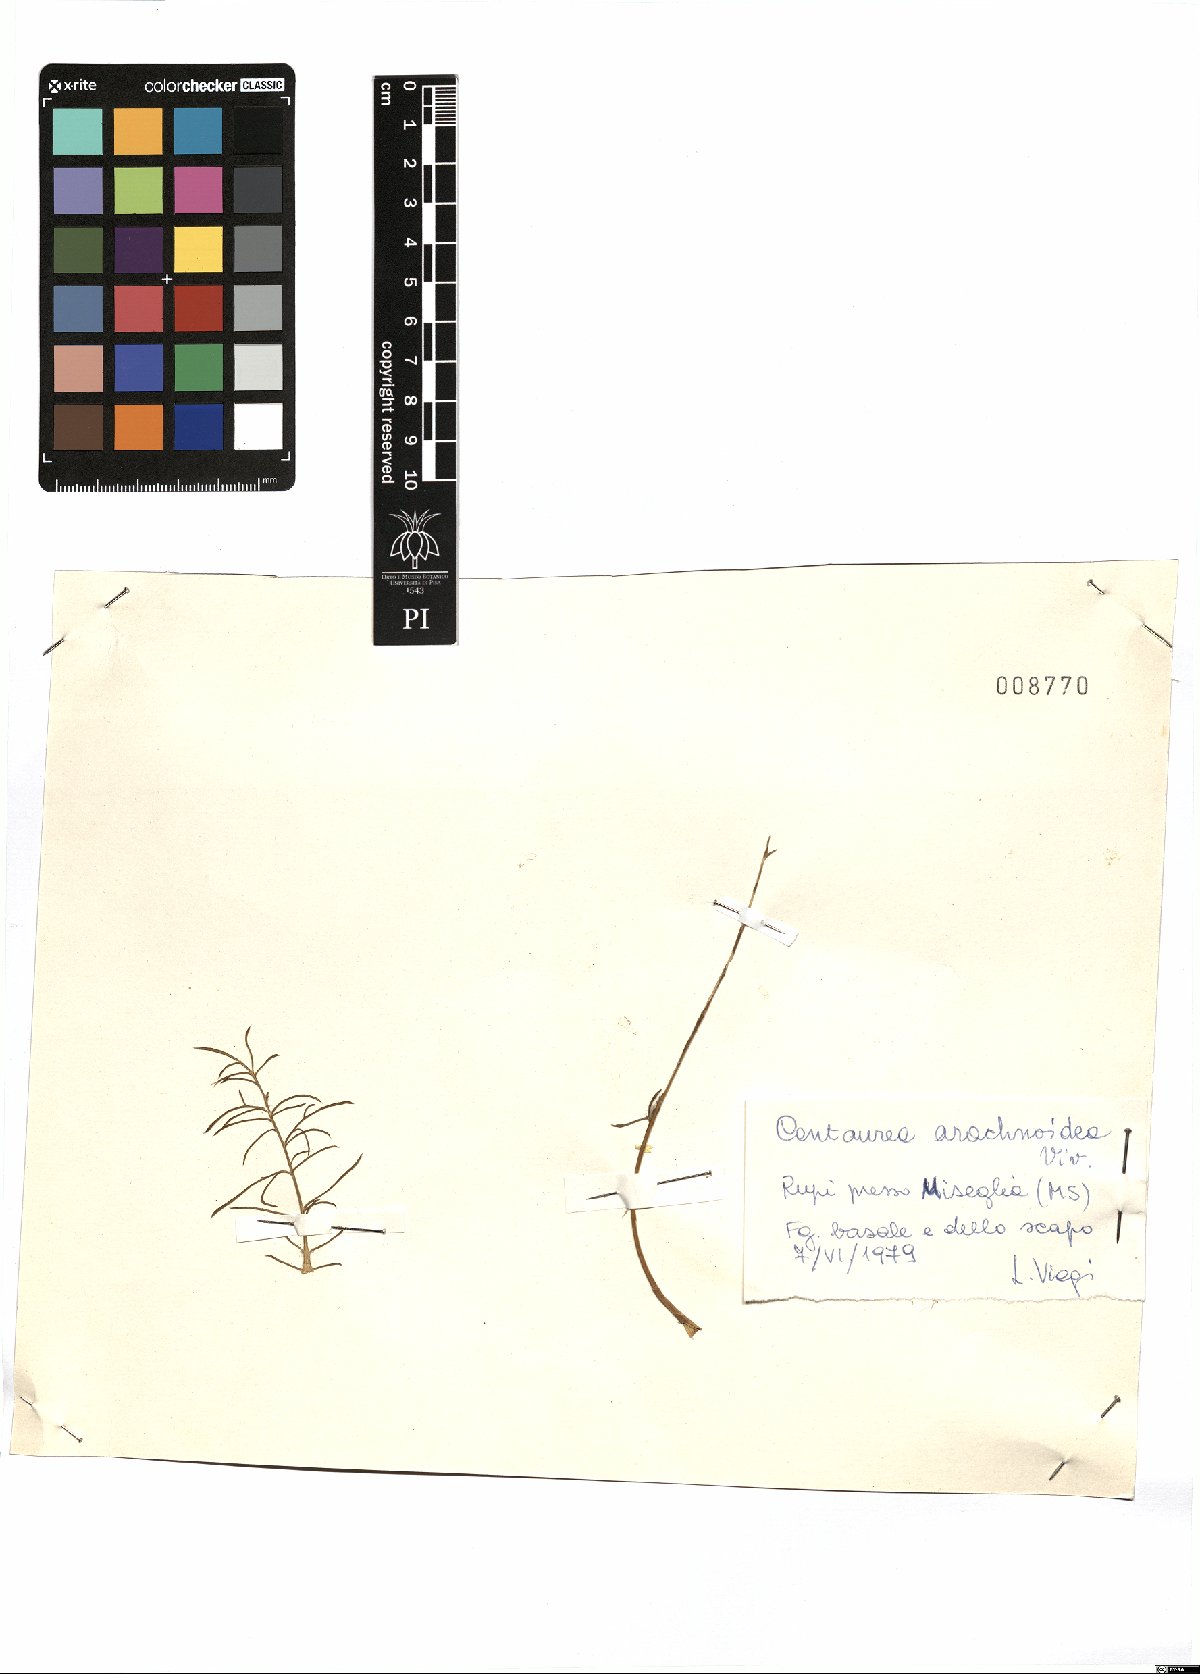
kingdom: Plantae
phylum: Tracheophyta
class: Magnoliopsida
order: Asterales
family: Asteraceae
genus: Centaurea
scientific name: Centaurea arachnoidea
